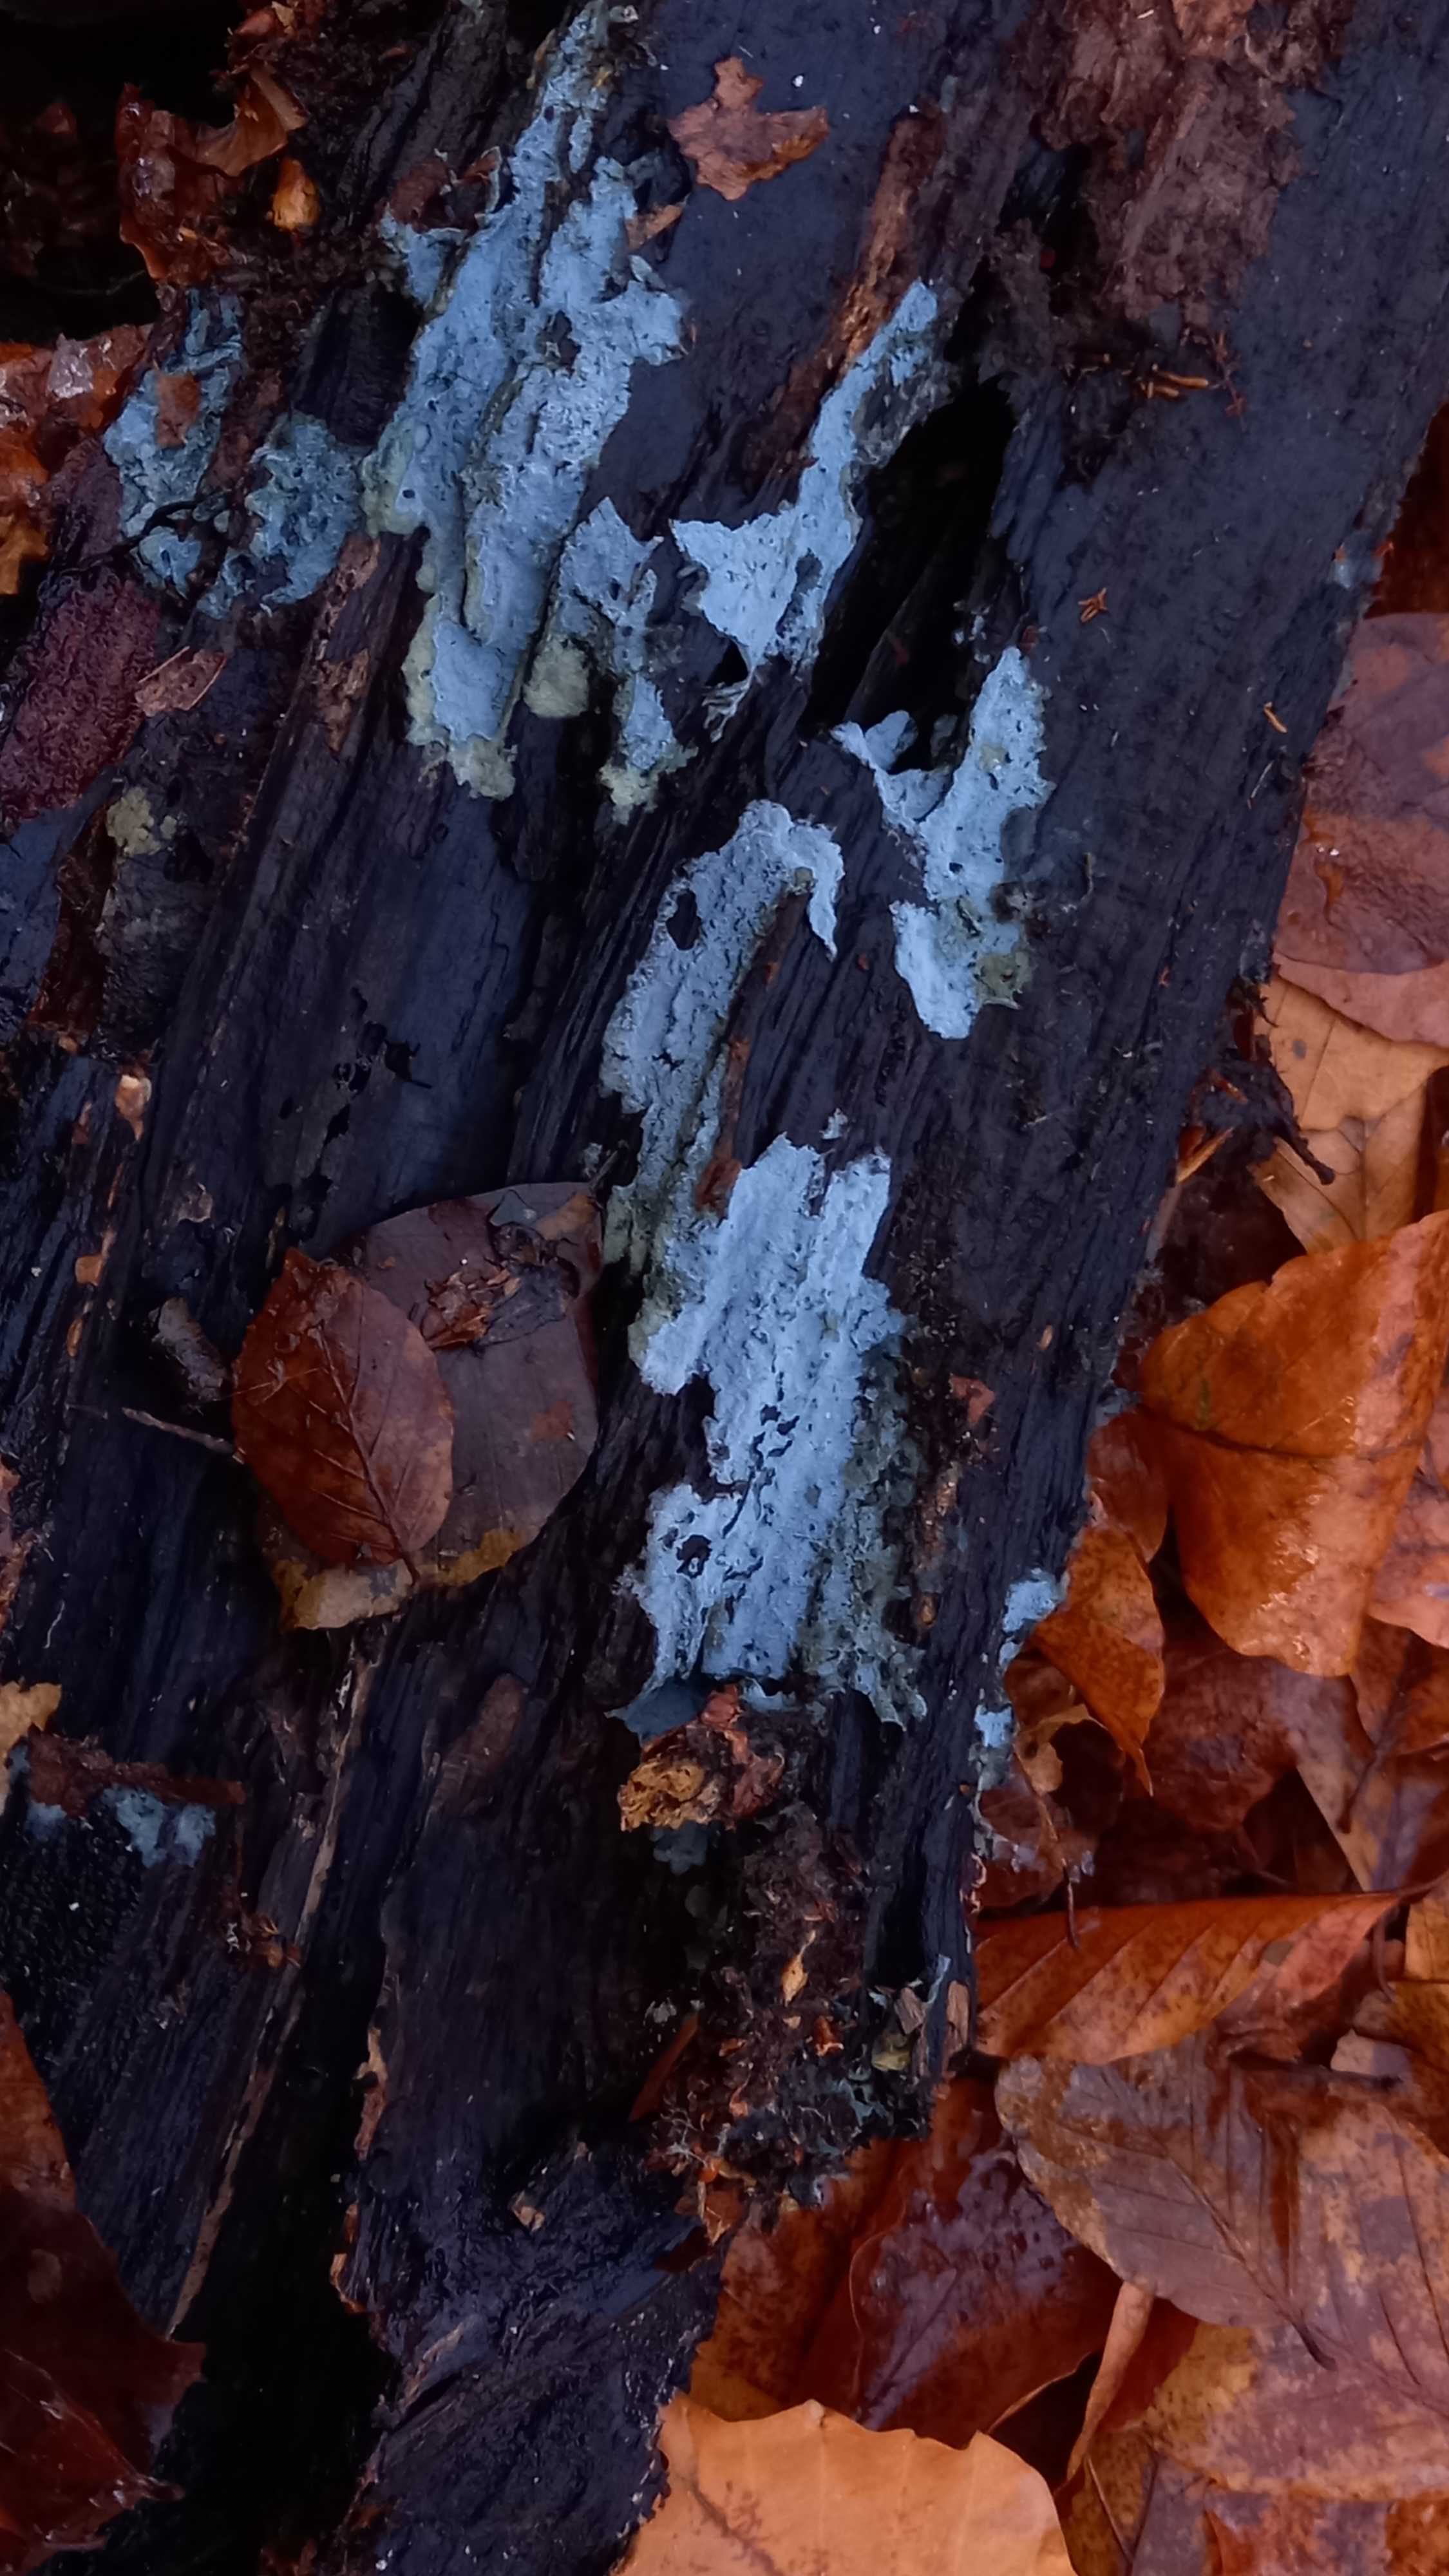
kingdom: Fungi
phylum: Basidiomycota
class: Agaricomycetes
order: Corticiales
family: Corticiaceae
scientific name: Corticiaceae
